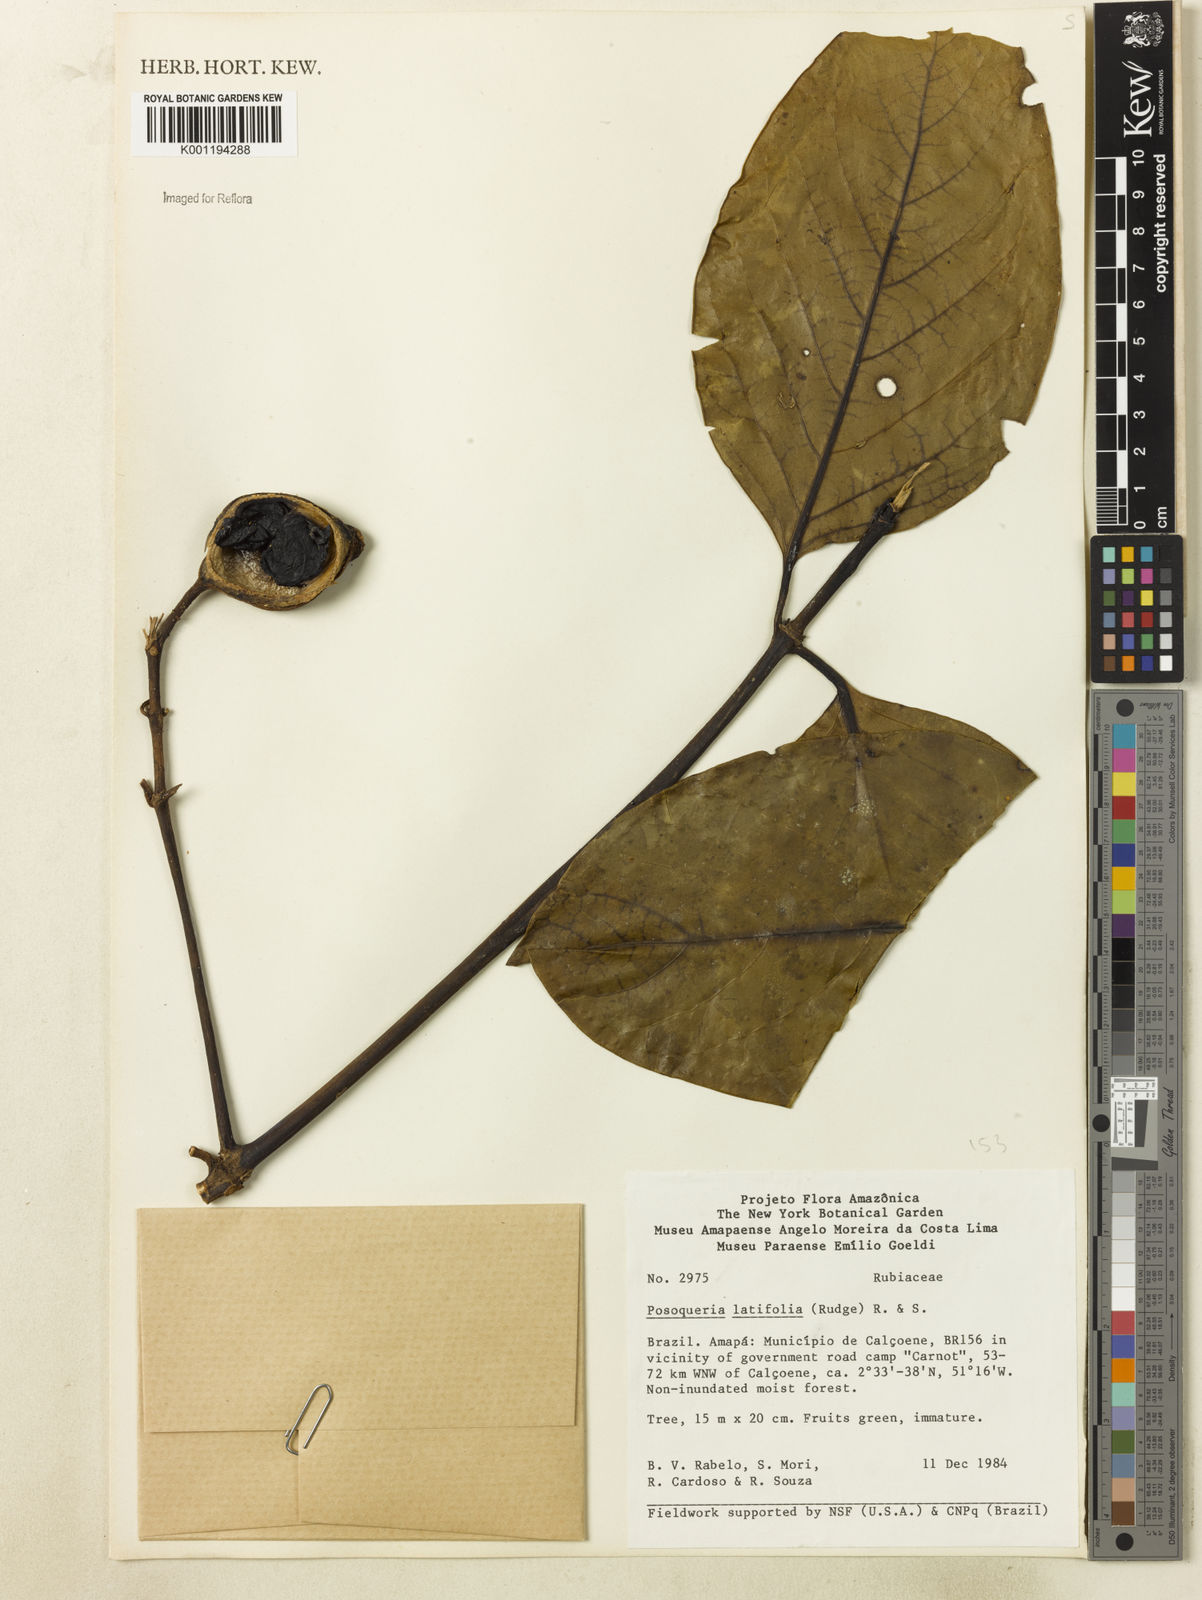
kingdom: Plantae
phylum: Tracheophyta
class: Magnoliopsida
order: Gentianales
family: Rubiaceae
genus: Posoqueria
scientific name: Posoqueria latifolia
